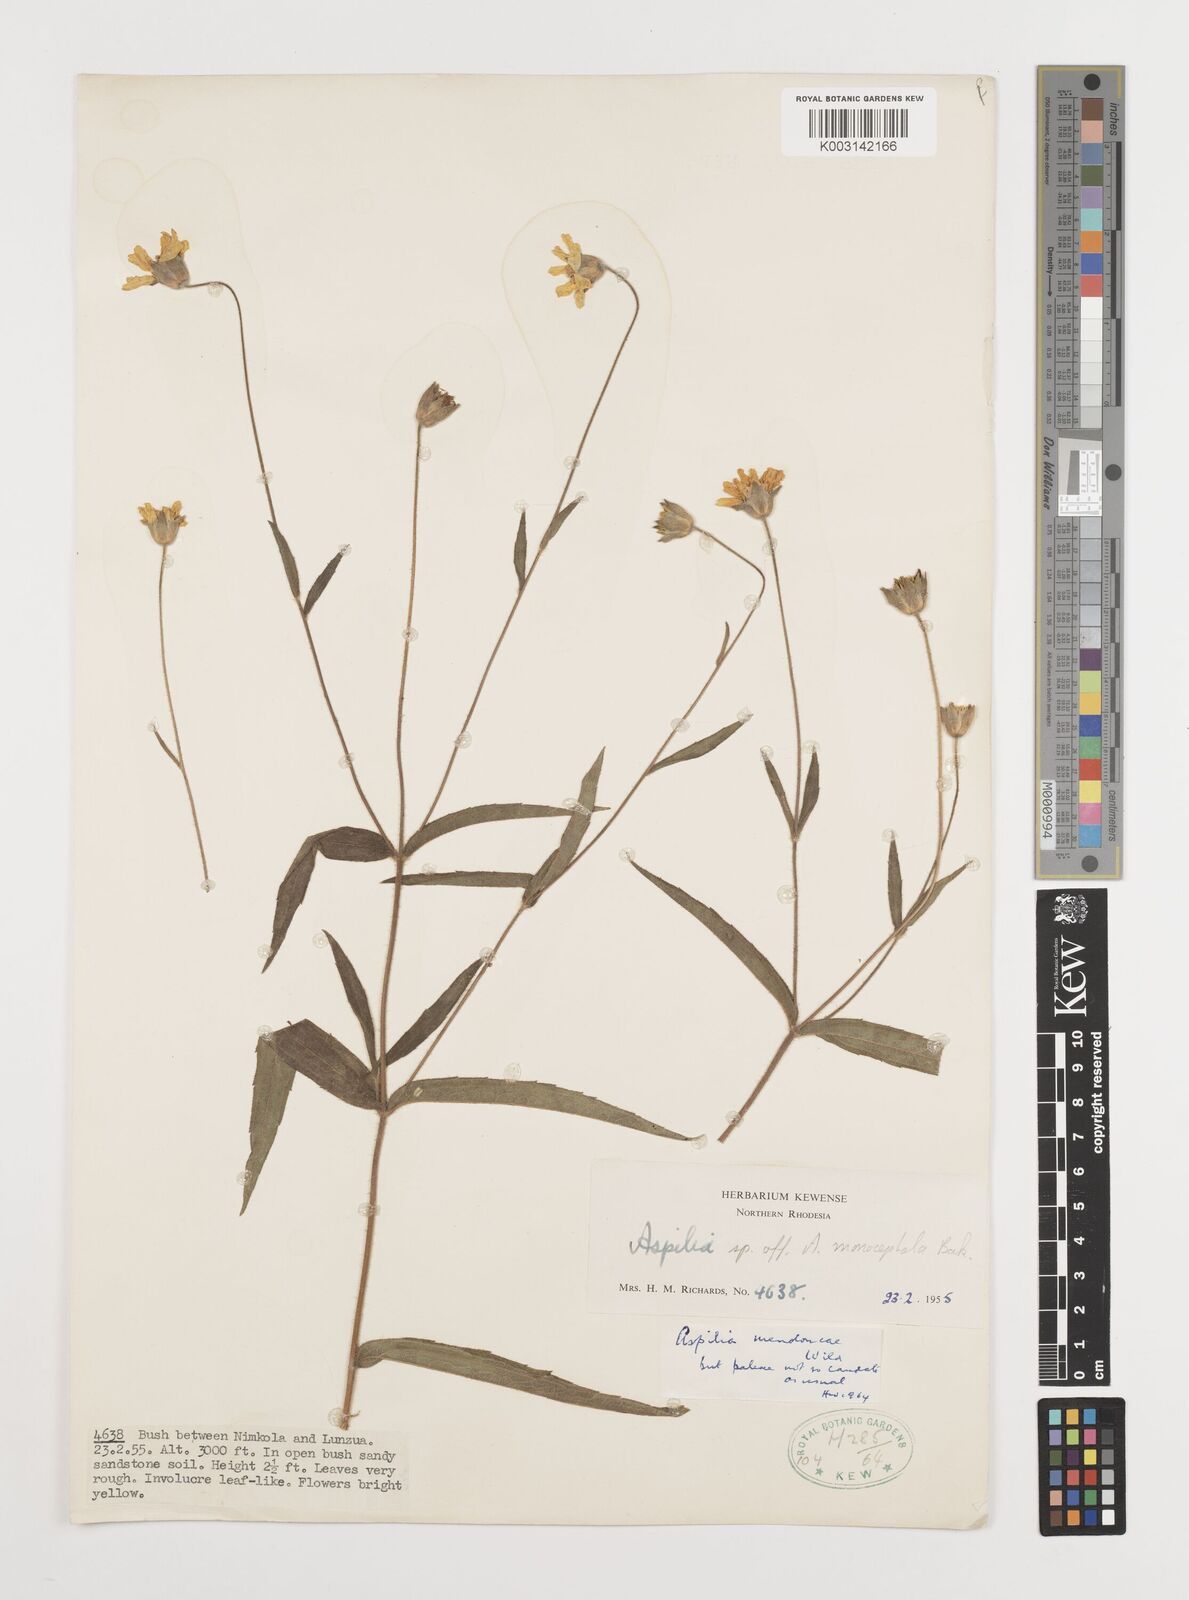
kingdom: Plantae
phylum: Tracheophyta
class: Magnoliopsida
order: Asterales
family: Asteraceae
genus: Aspilia
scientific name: Aspilia natalensis
